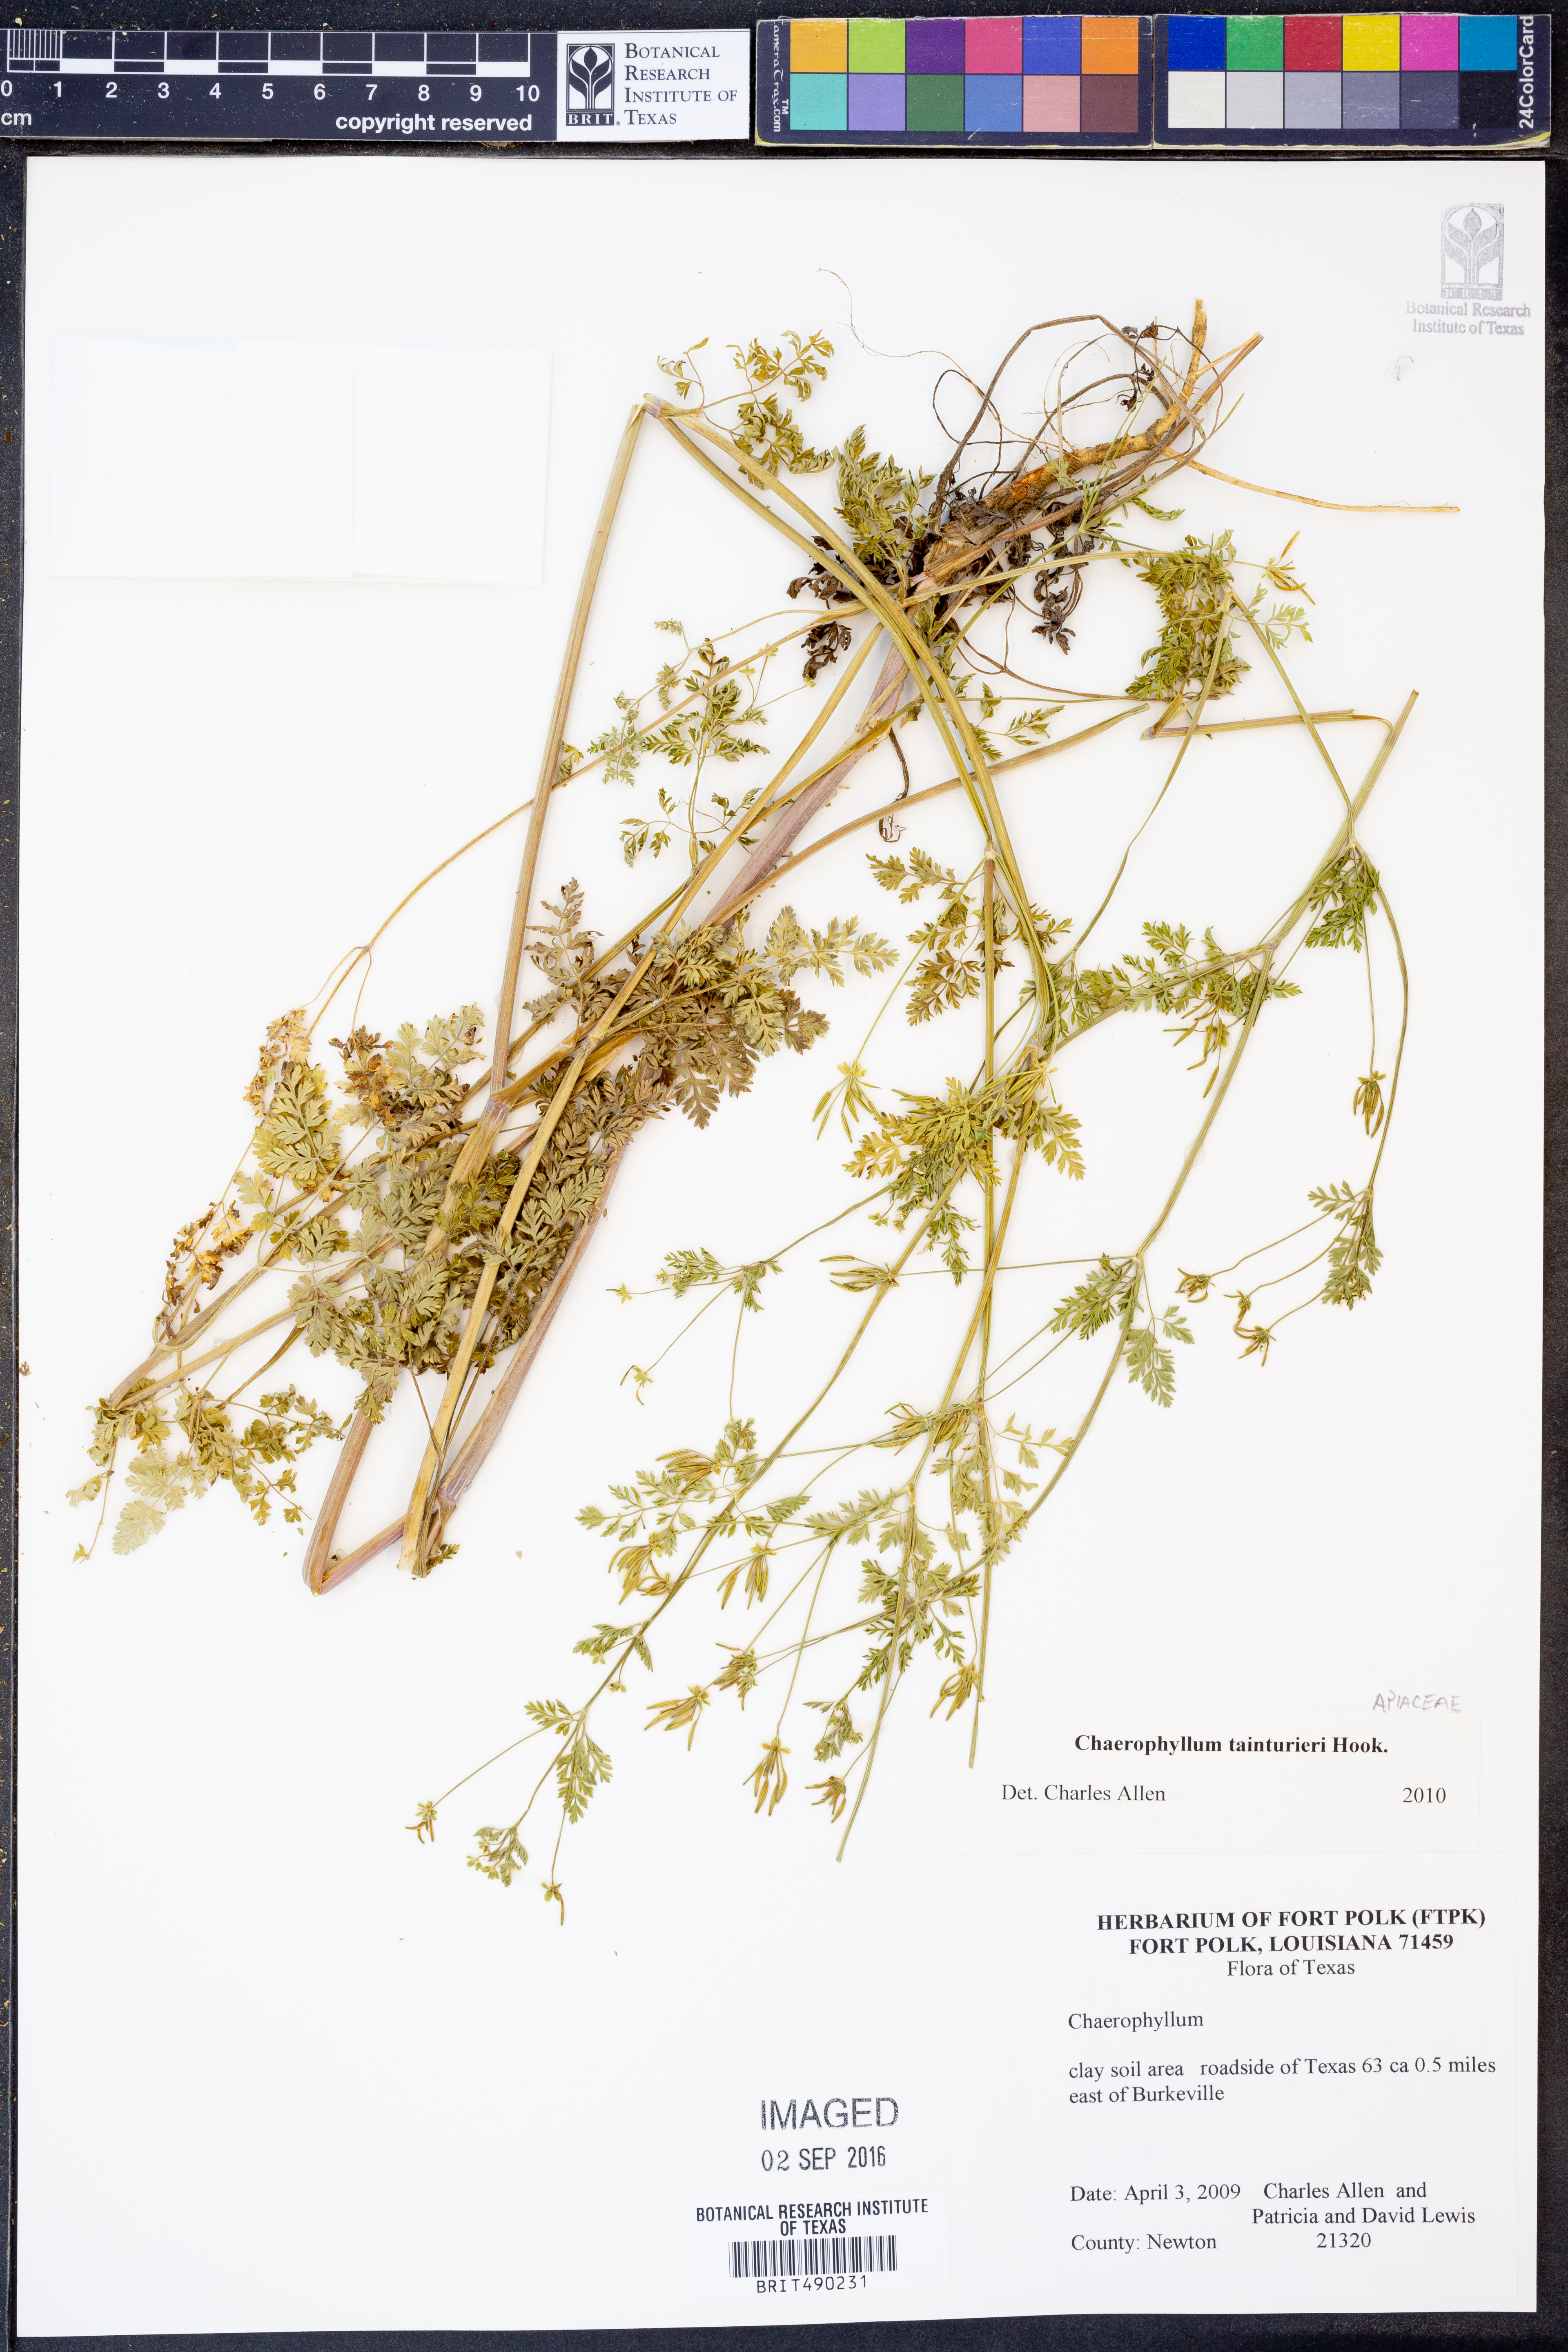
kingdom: Plantae
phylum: Tracheophyta
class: Magnoliopsida
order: Apiales
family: Apiaceae
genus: Chaerophyllum
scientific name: Chaerophyllum tainturieri
